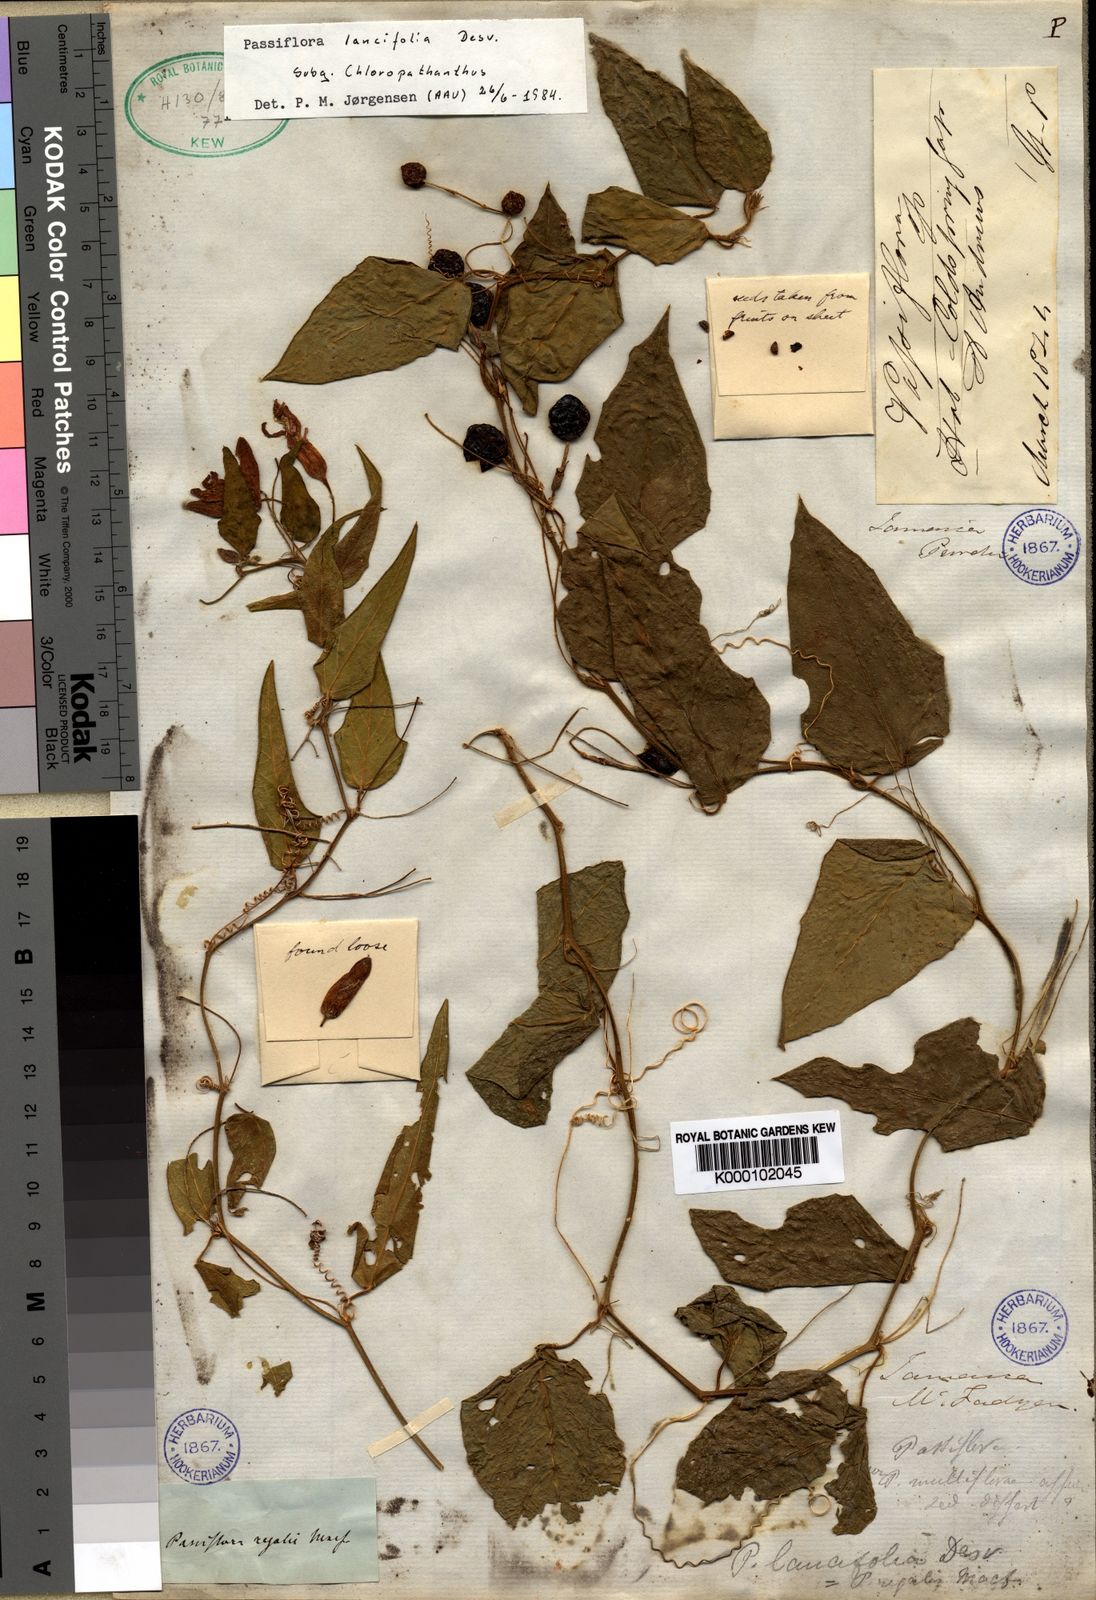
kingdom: Plantae
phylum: Tracheophyta
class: Magnoliopsida
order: Malpighiales
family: Passifloraceae
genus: Passiflora
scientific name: Passiflora
